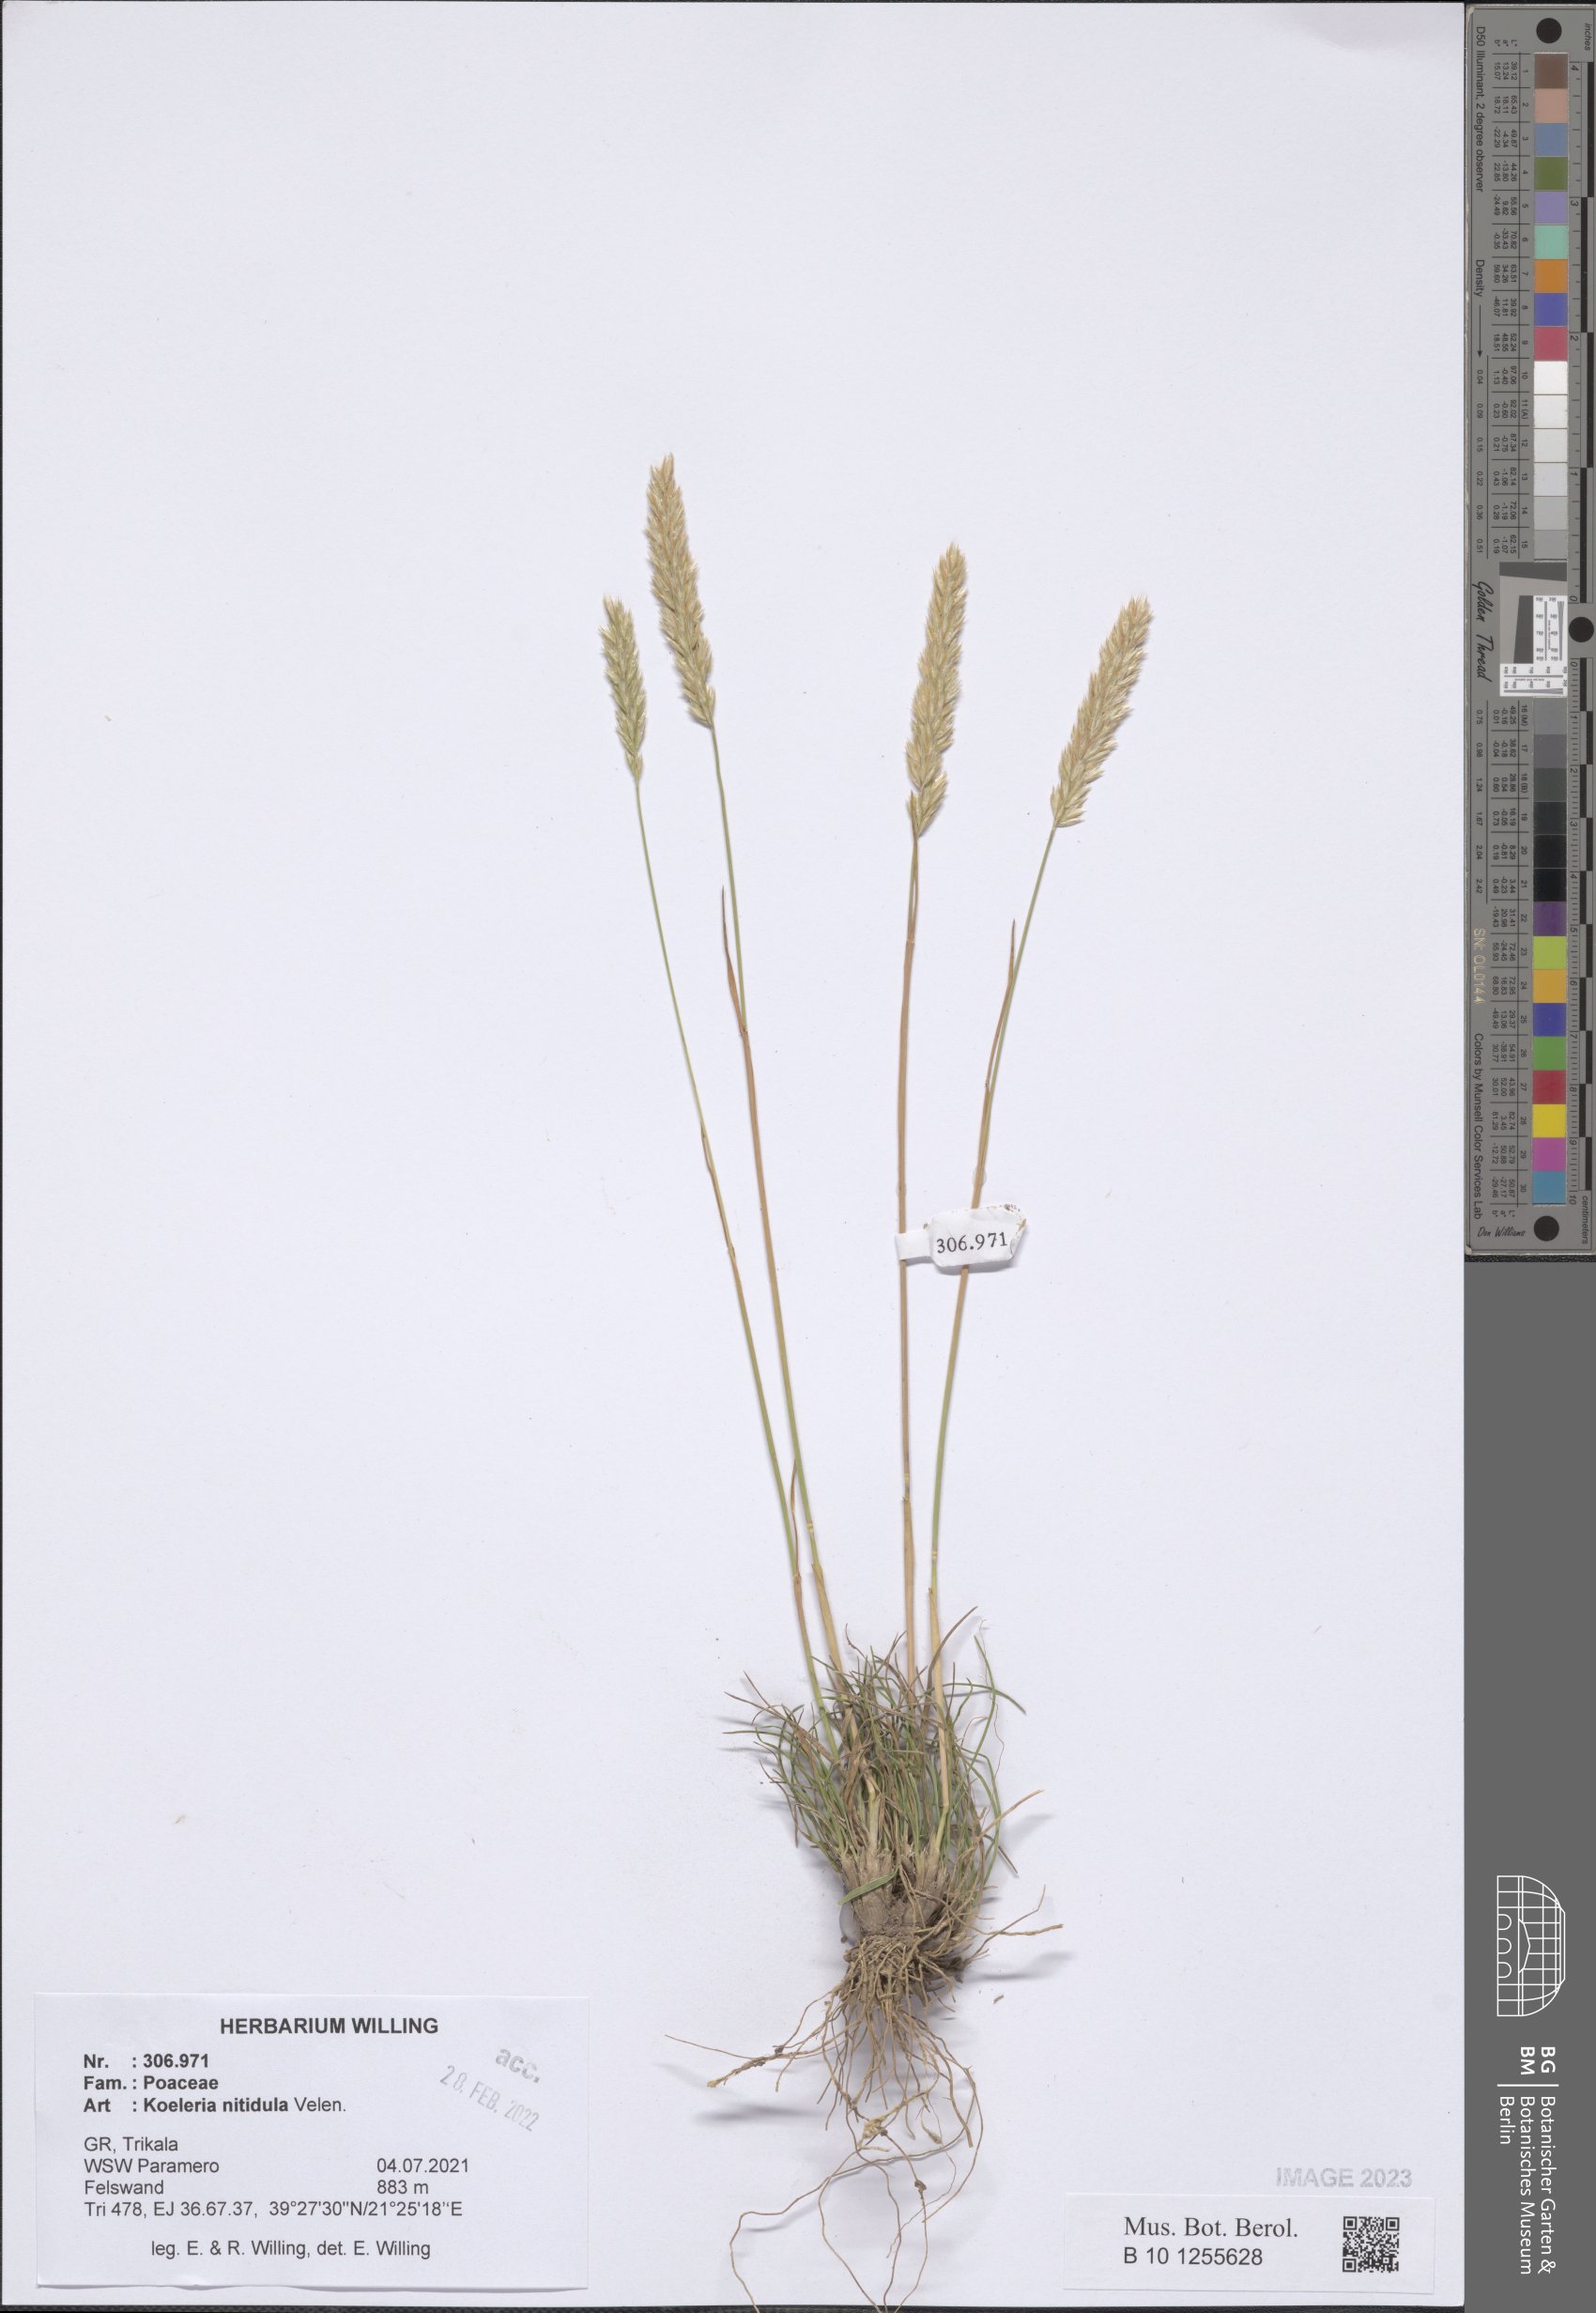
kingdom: Plantae
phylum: Tracheophyta
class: Liliopsida
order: Poales
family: Poaceae
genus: Koeleria
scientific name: Koeleria nitidula
